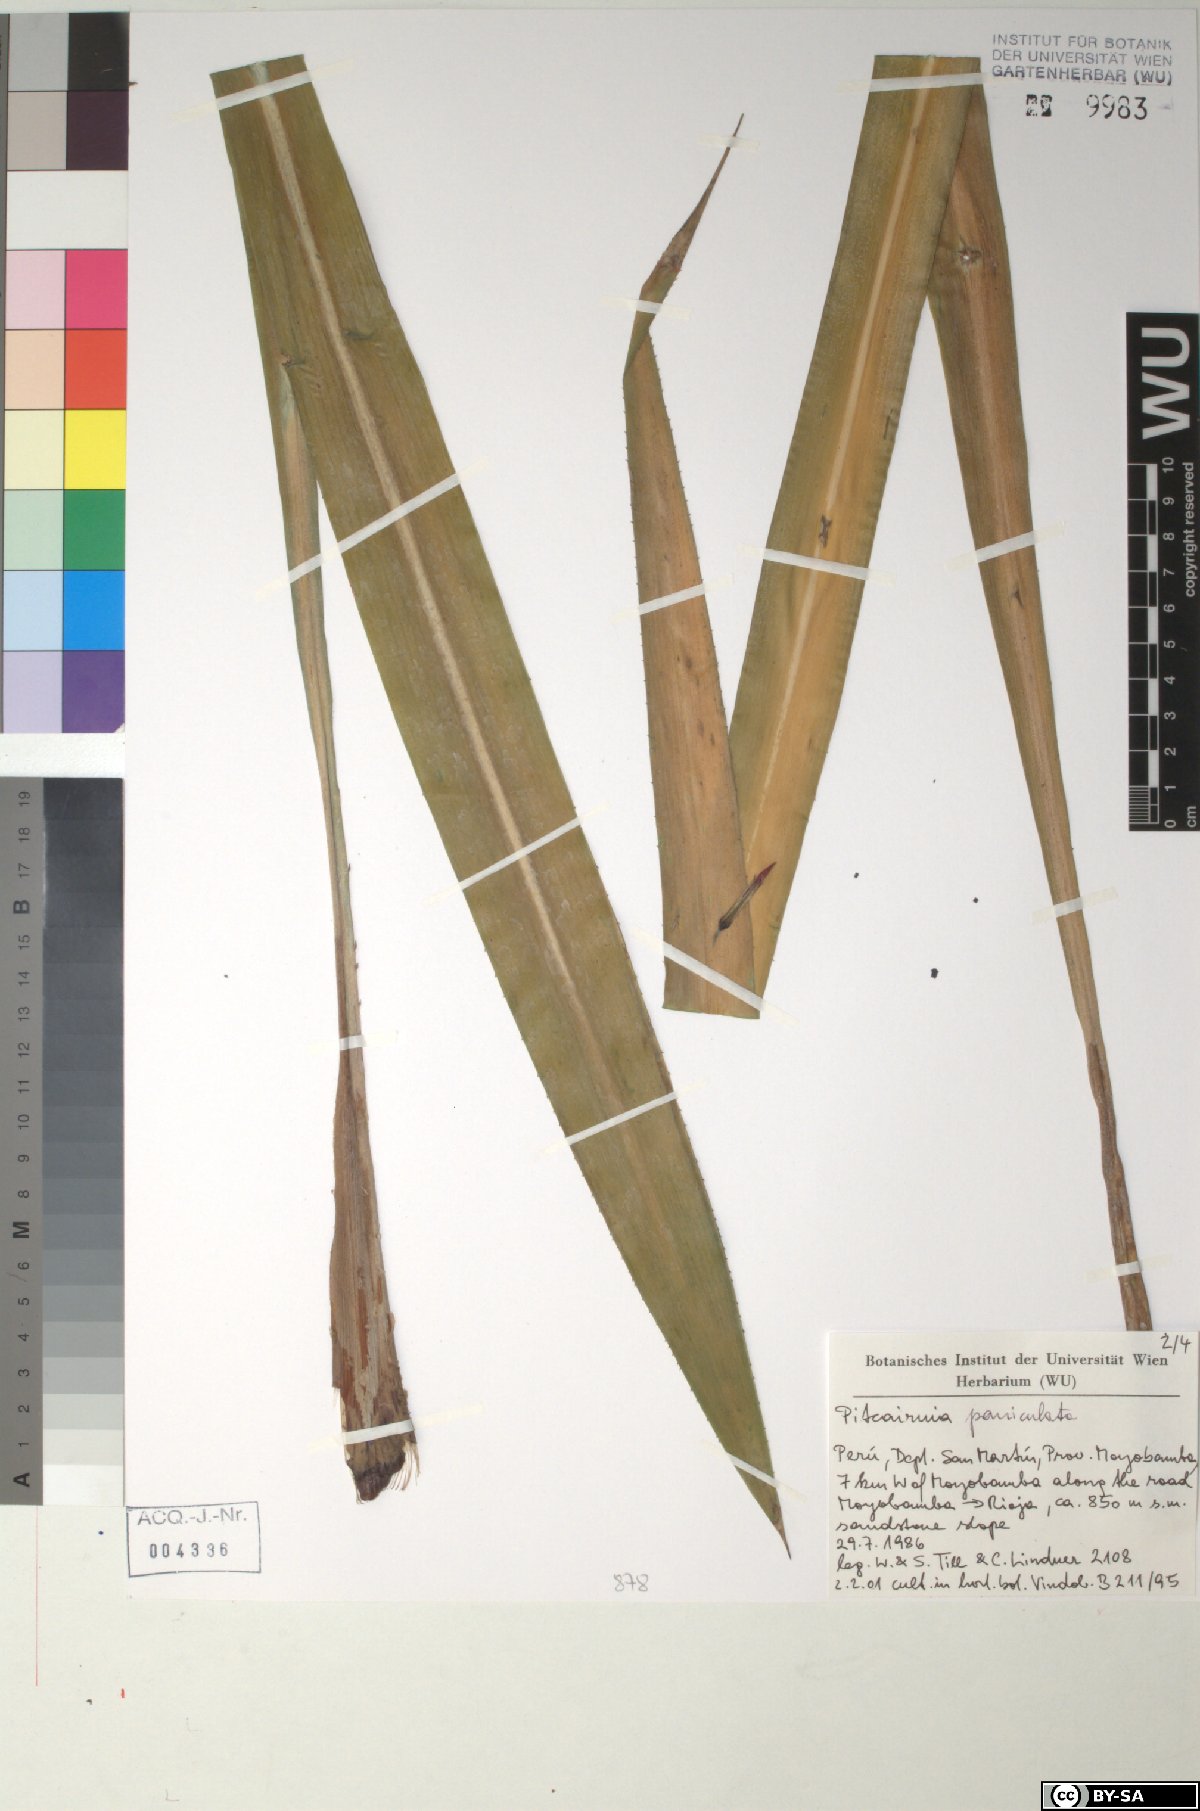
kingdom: Plantae
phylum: Tracheophyta
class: Liliopsida
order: Poales
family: Bromeliaceae
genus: Pitcairnia
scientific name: Pitcairnia paniculata
